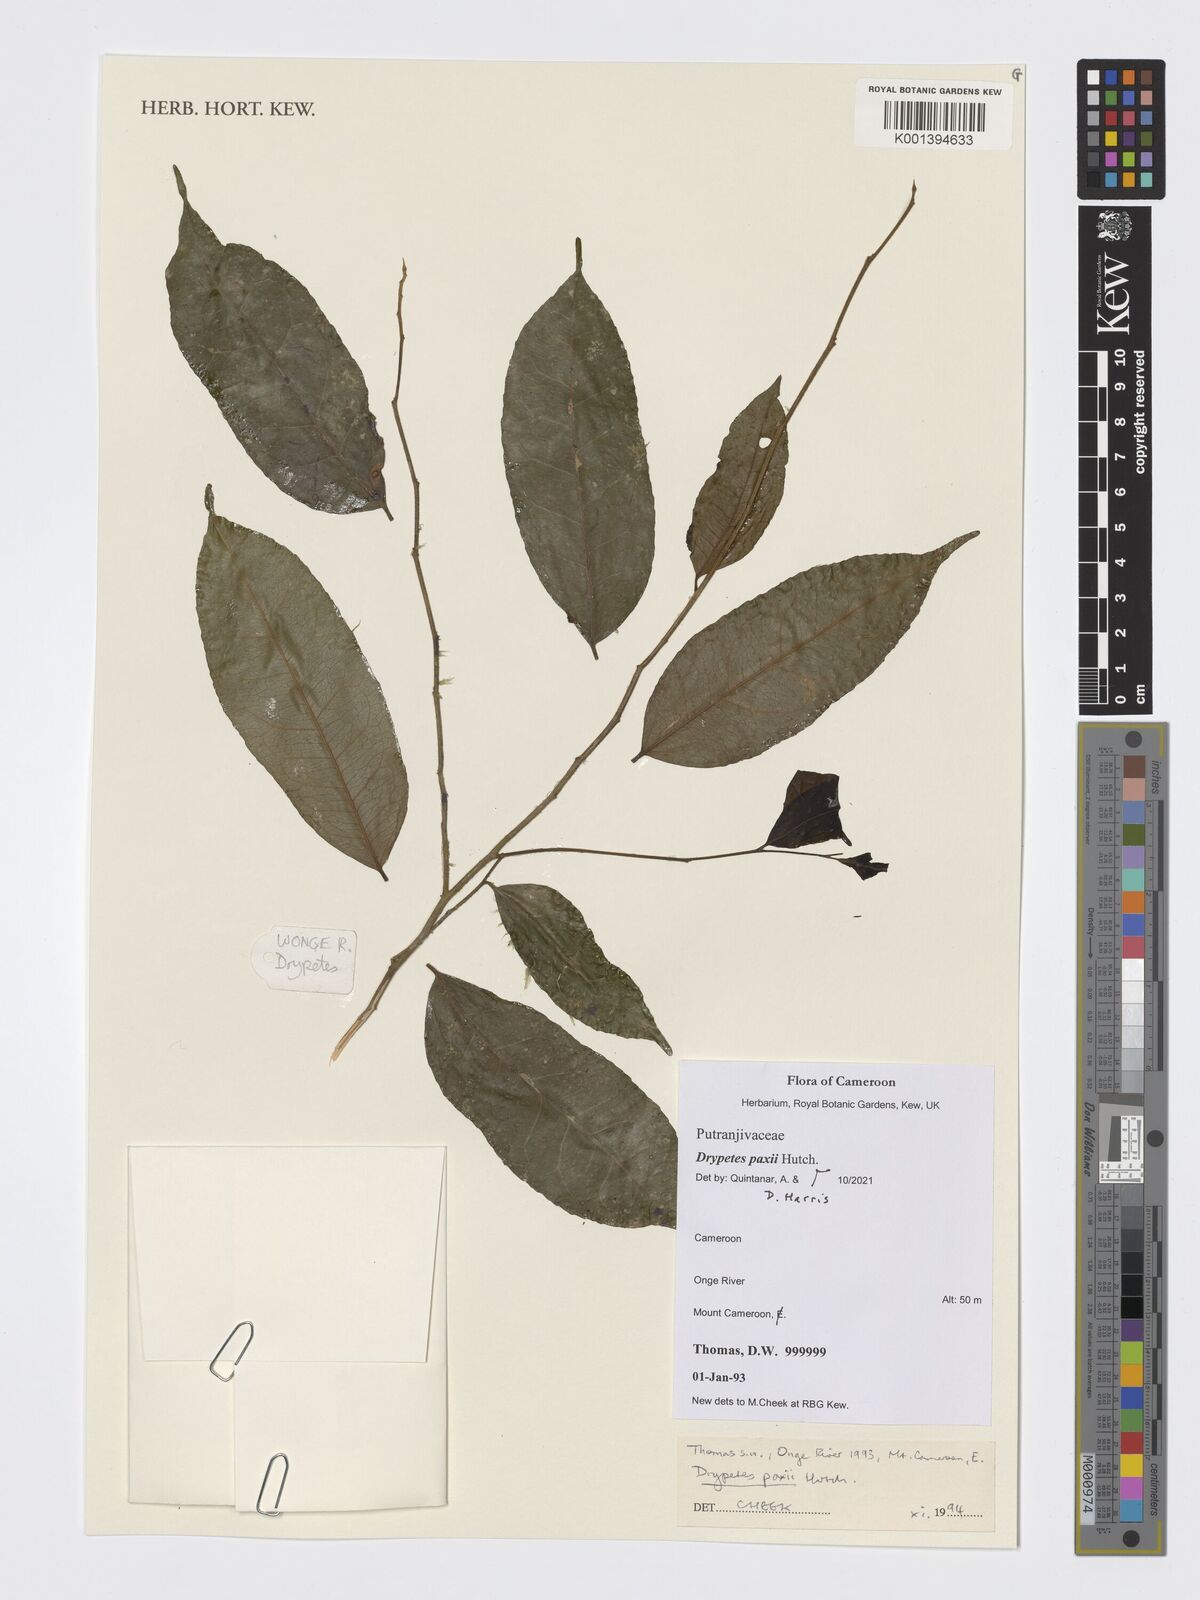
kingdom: Plantae
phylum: Tracheophyta
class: Magnoliopsida
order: Malpighiales
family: Putranjivaceae
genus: Drypetes
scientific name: Drypetes paxii
